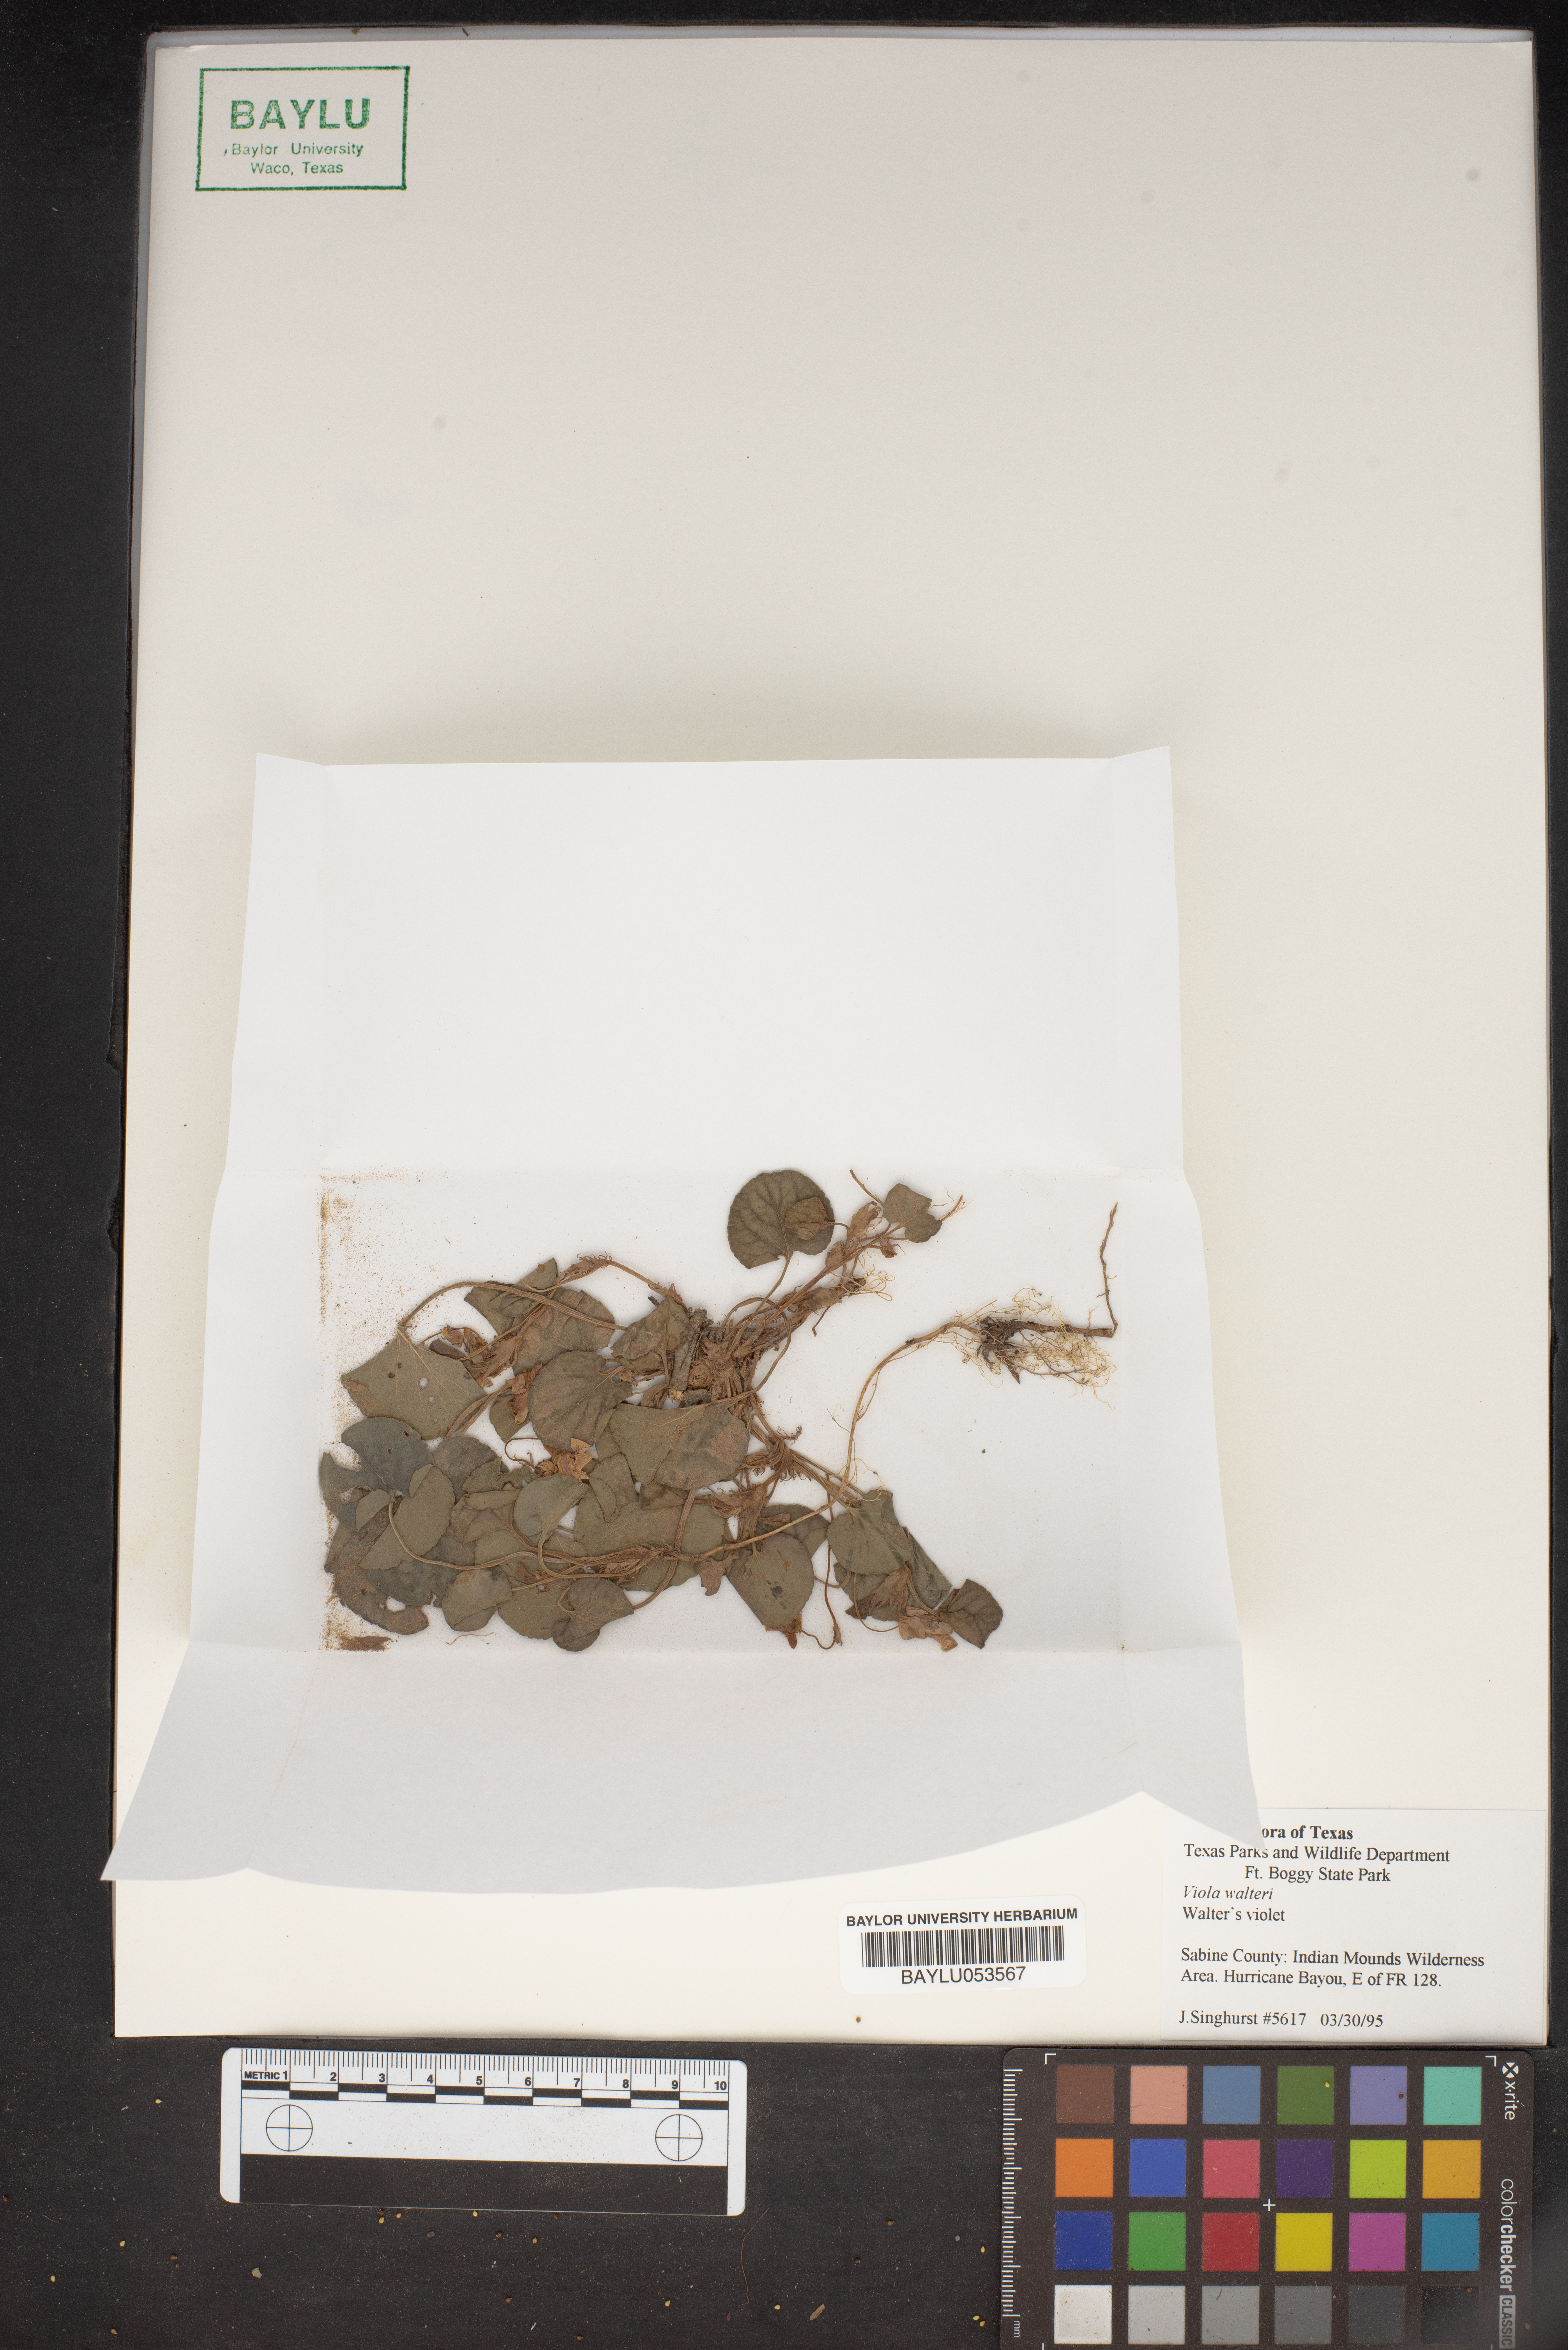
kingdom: Plantae
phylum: Tracheophyta
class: Magnoliopsida
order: Malpighiales
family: Violaceae
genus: Viola
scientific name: Viola walteri
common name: Prostrate southern violet
